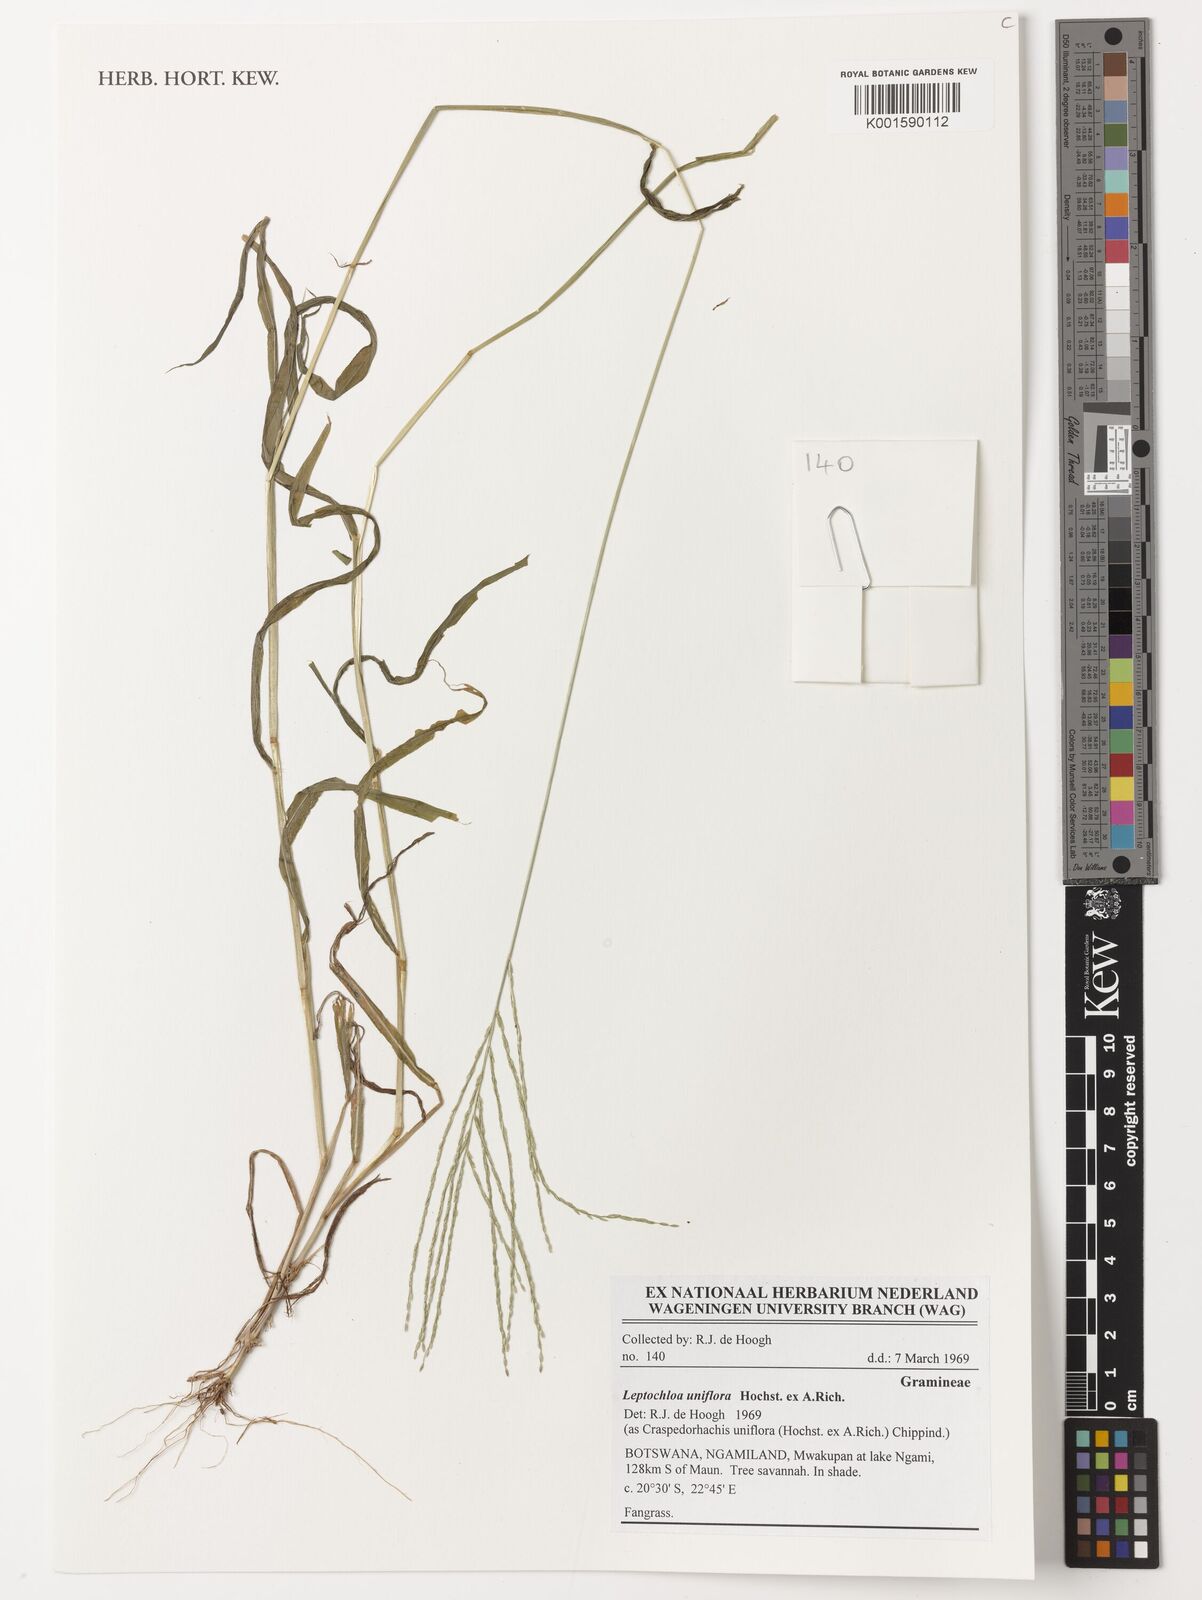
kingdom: Plantae
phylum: Tracheophyta
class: Liliopsida
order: Poales
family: Poaceae
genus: Trigonochloa
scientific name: Trigonochloa uniflora
